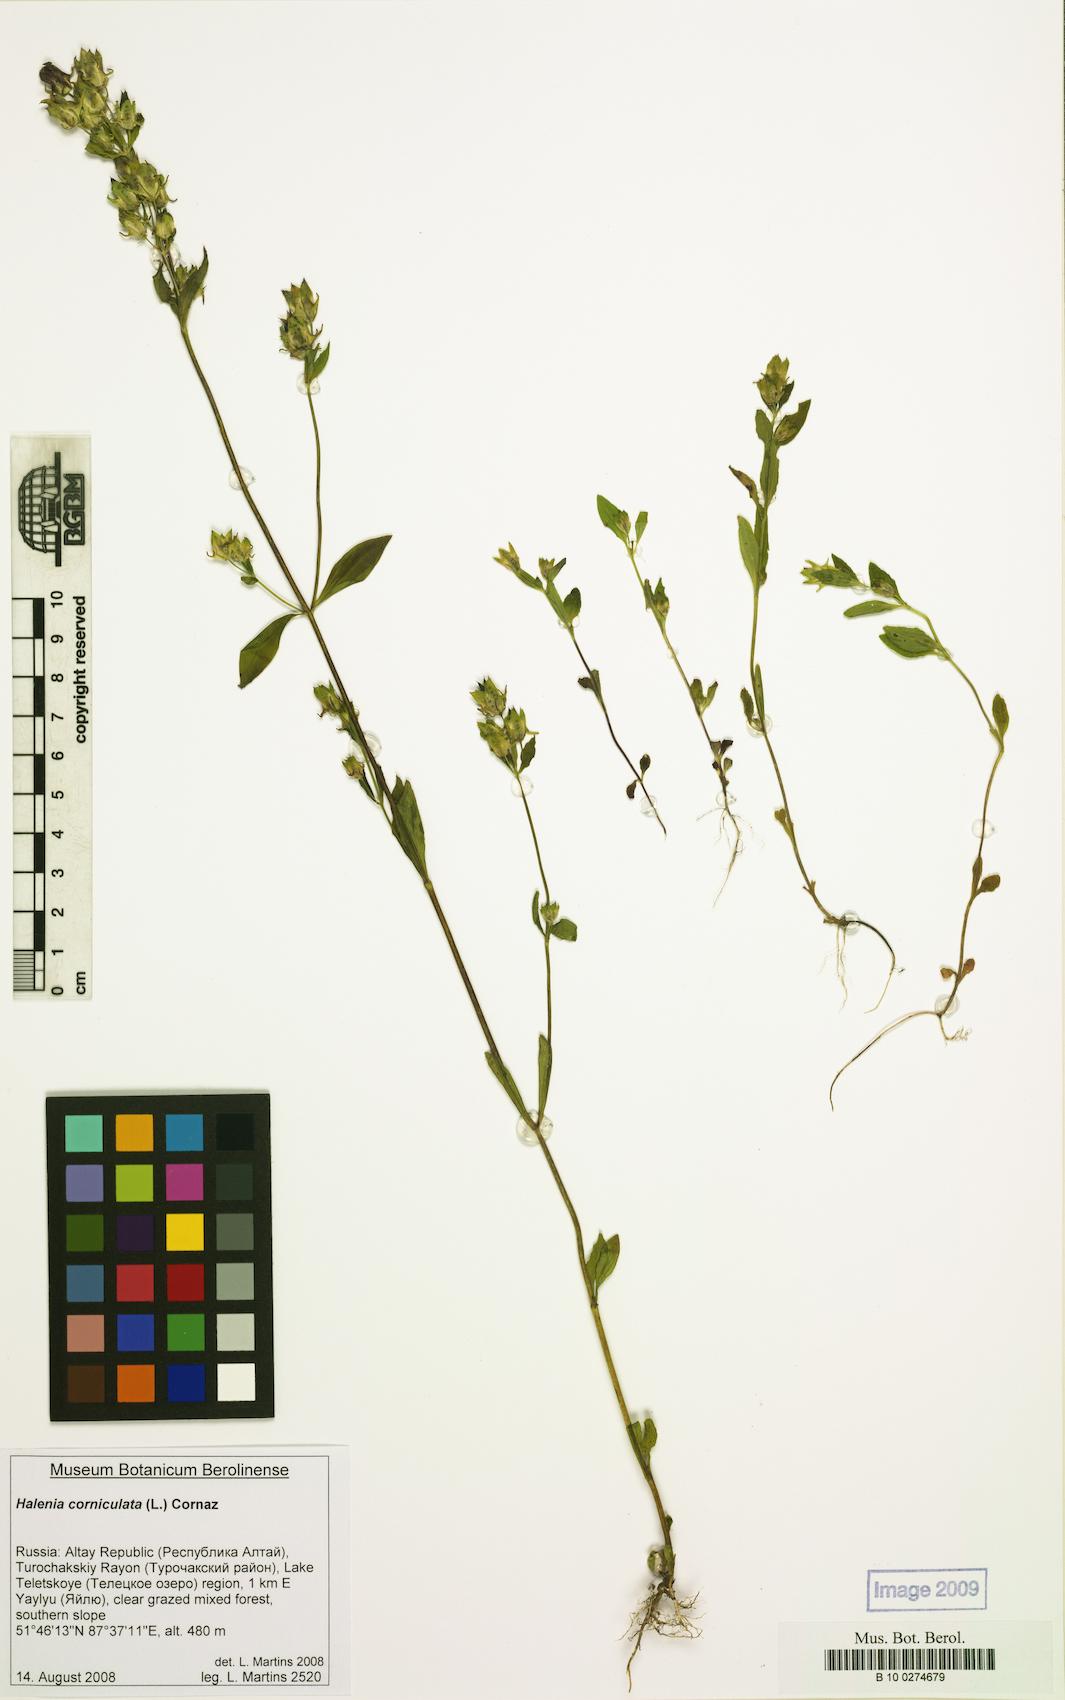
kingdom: Plantae
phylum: Tracheophyta
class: Magnoliopsida
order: Gentianales
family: Gentianaceae
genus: Halenia
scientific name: Halenia corniculata
